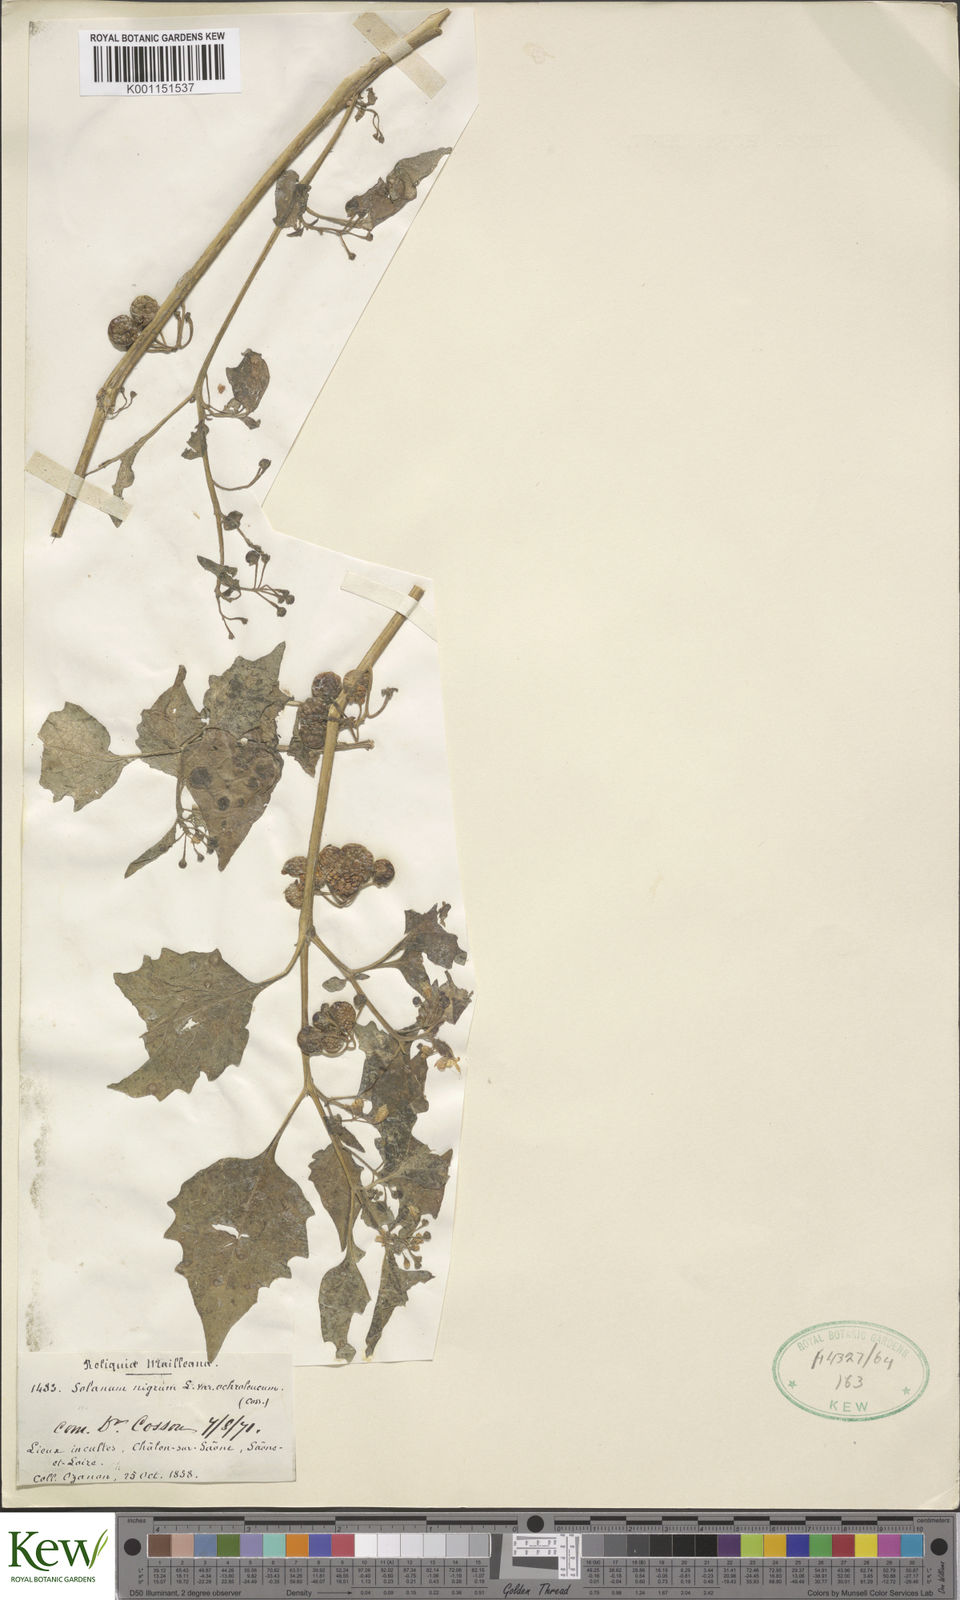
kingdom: Plantae
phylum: Tracheophyta
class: Magnoliopsida
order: Solanales
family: Solanaceae
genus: Solanum
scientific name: Solanum villosum
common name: Red nightshade
